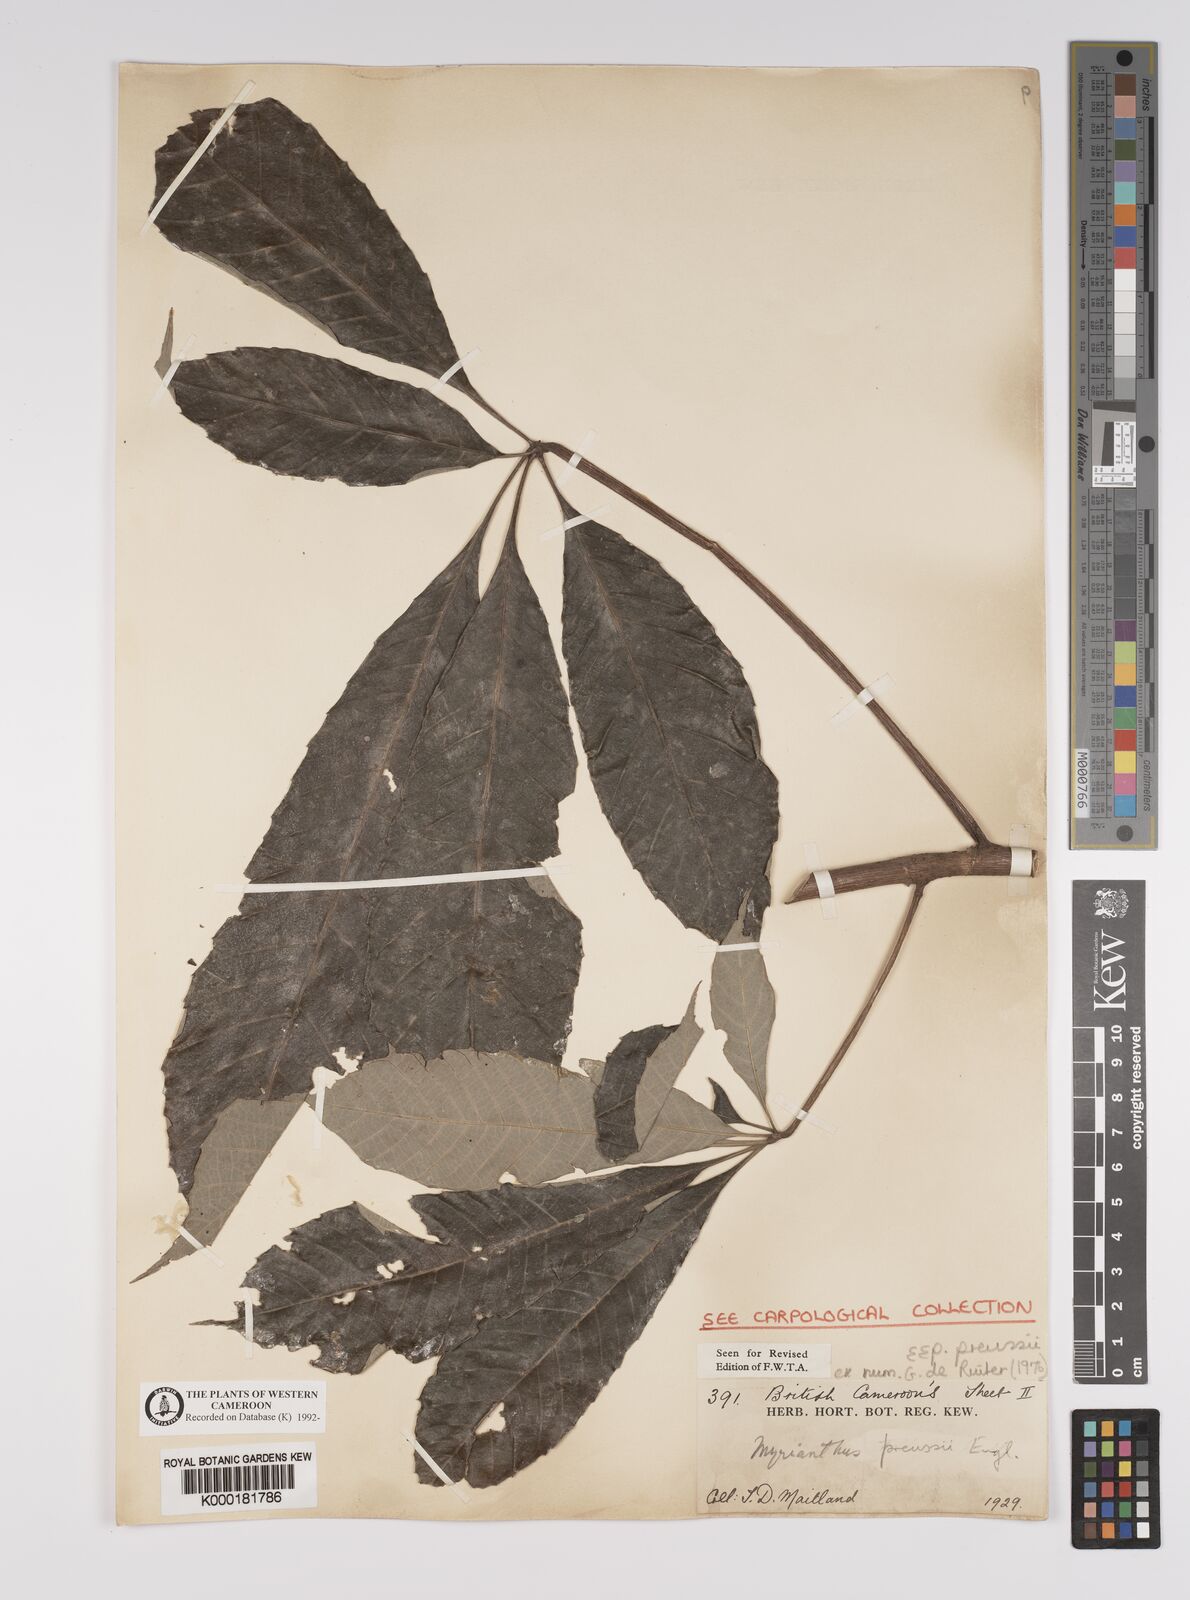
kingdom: Plantae
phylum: Tracheophyta
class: Magnoliopsida
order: Rosales
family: Urticaceae
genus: Myrianthus
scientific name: Myrianthus preussii
